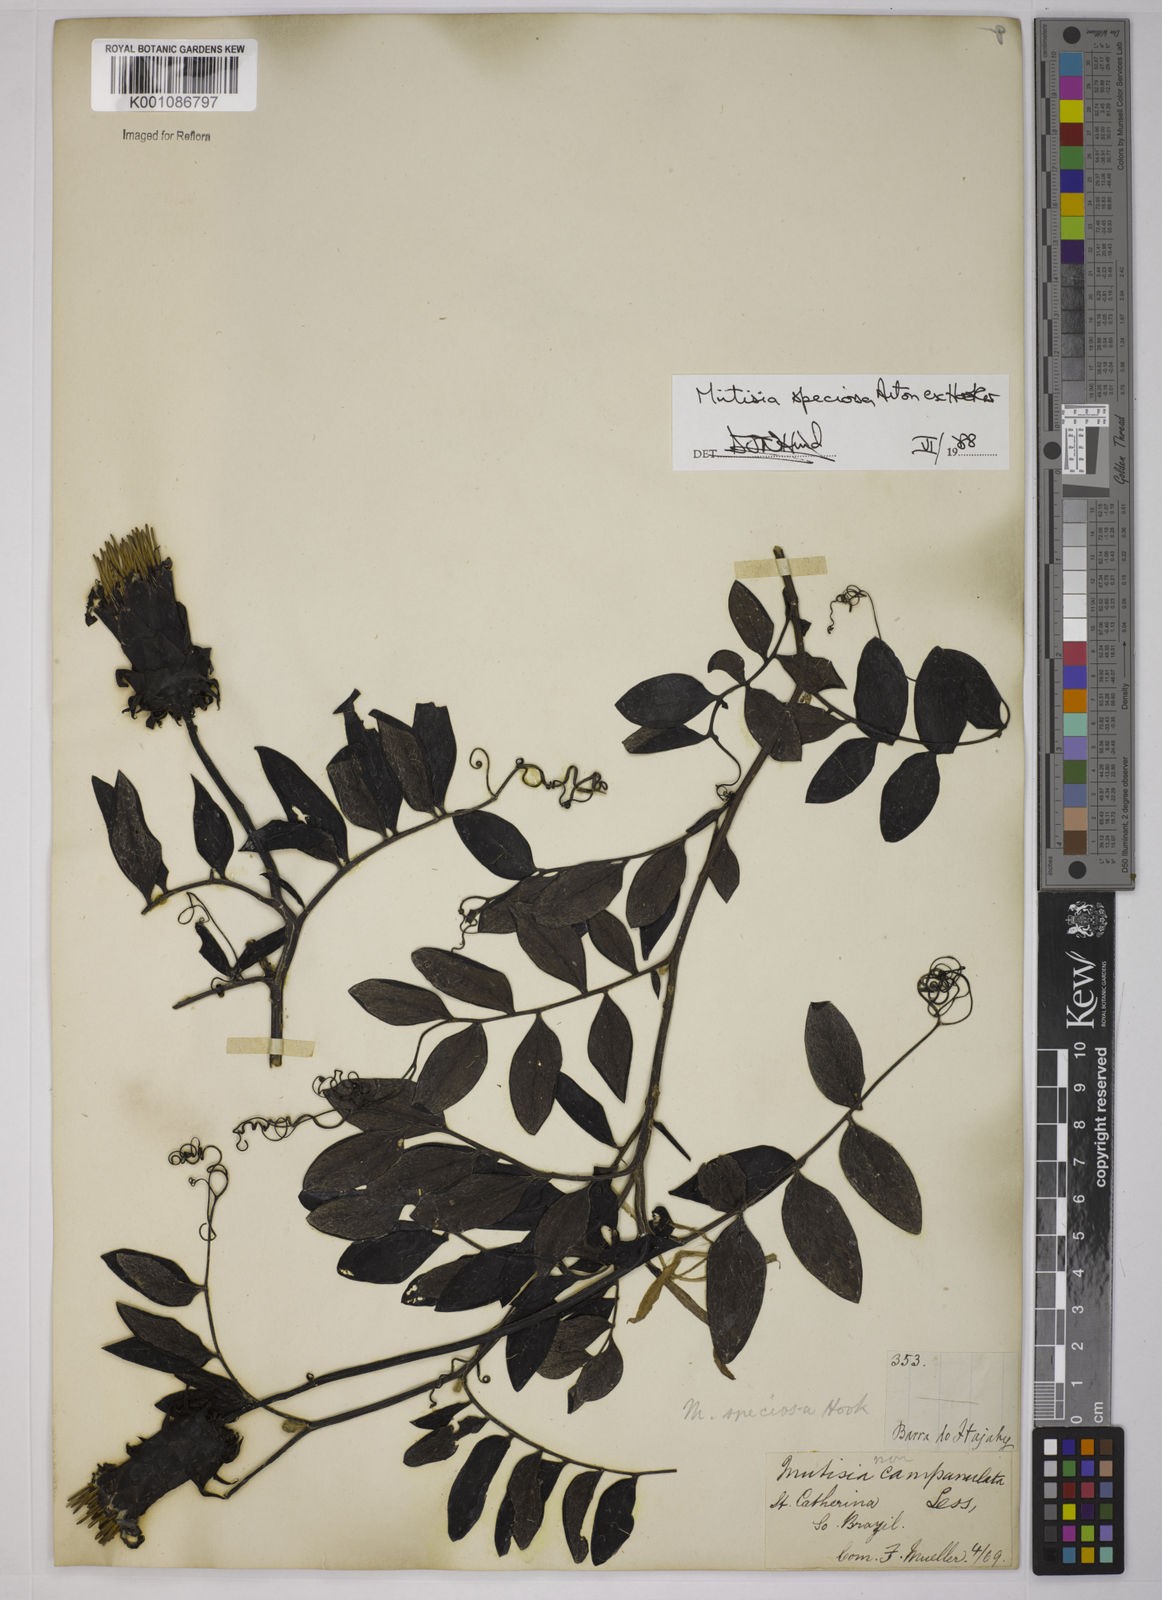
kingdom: Plantae
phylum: Tracheophyta
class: Magnoliopsida
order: Asterales
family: Asteraceae
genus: Mutisia
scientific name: Mutisia speciosa
